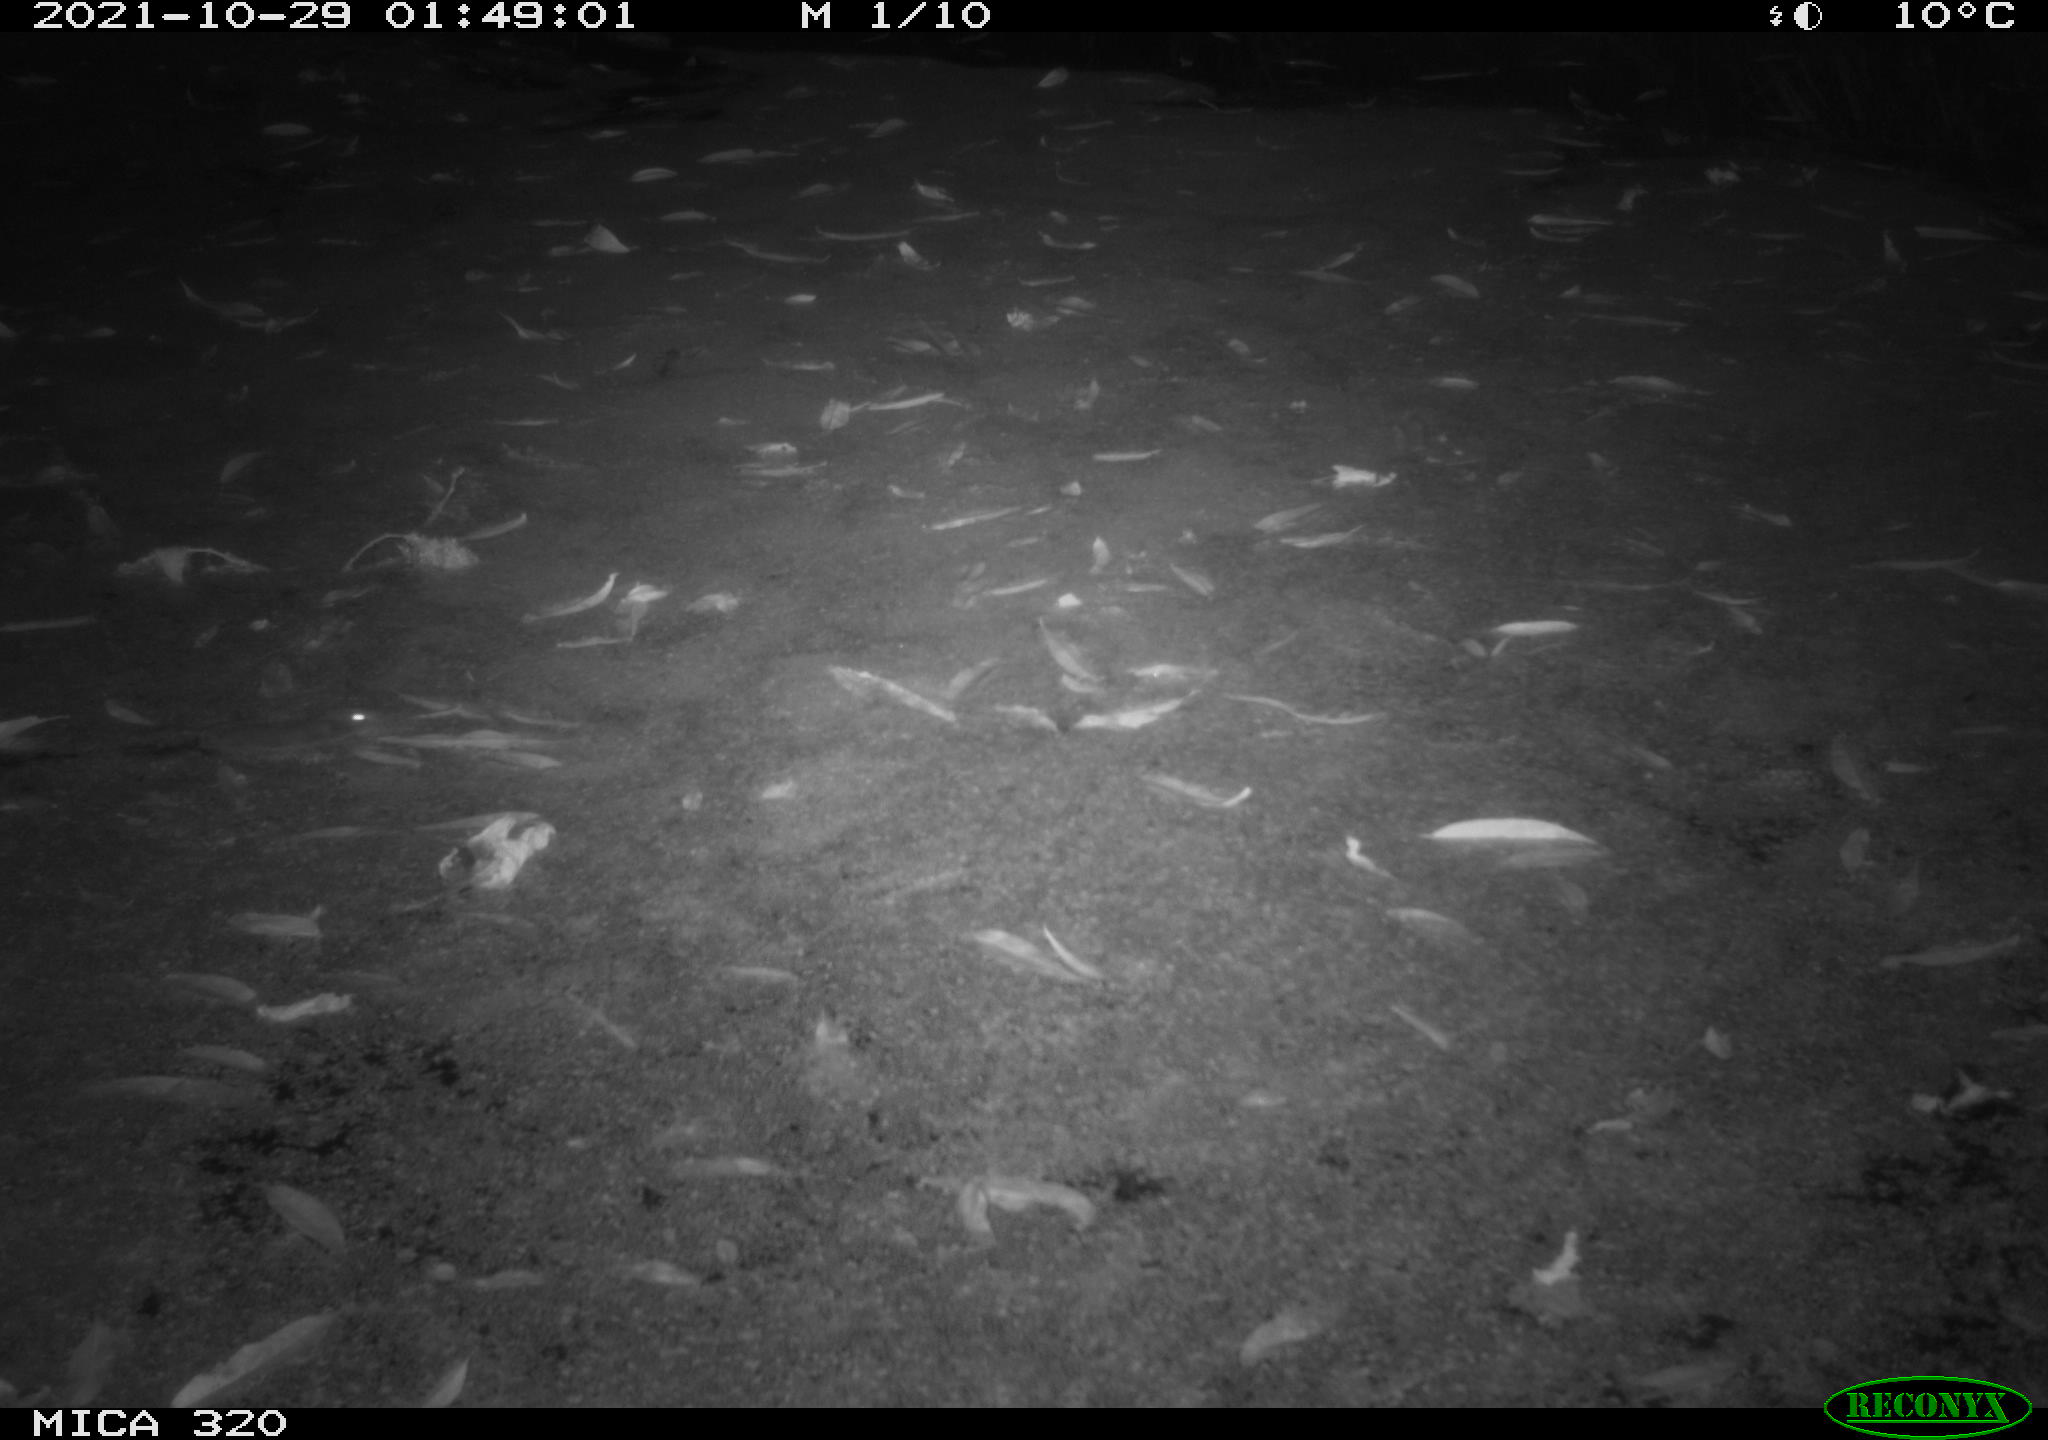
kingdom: Animalia
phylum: Chordata
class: Mammalia
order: Rodentia
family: Muridae
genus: Rattus
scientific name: Rattus norvegicus
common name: Brown rat
